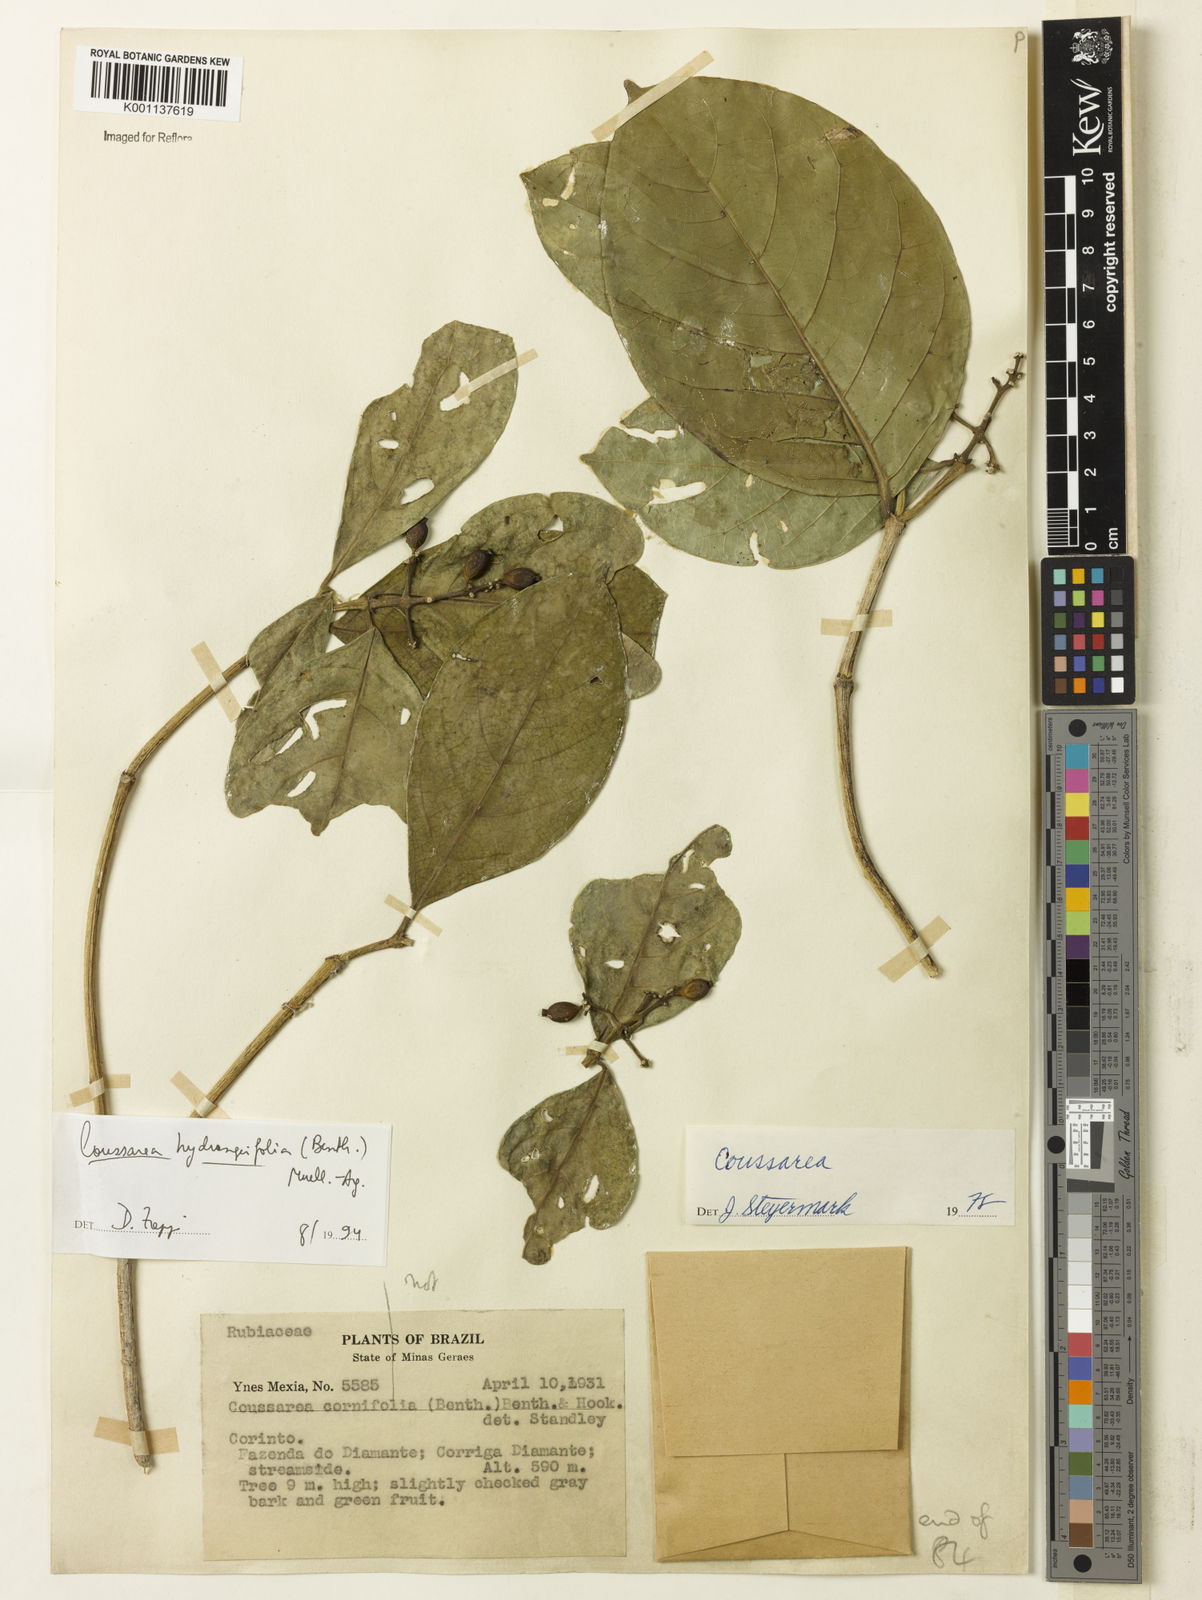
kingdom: Plantae
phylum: Tracheophyta
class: Magnoliopsida
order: Gentianales
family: Rubiaceae
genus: Coussarea
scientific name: Coussarea
